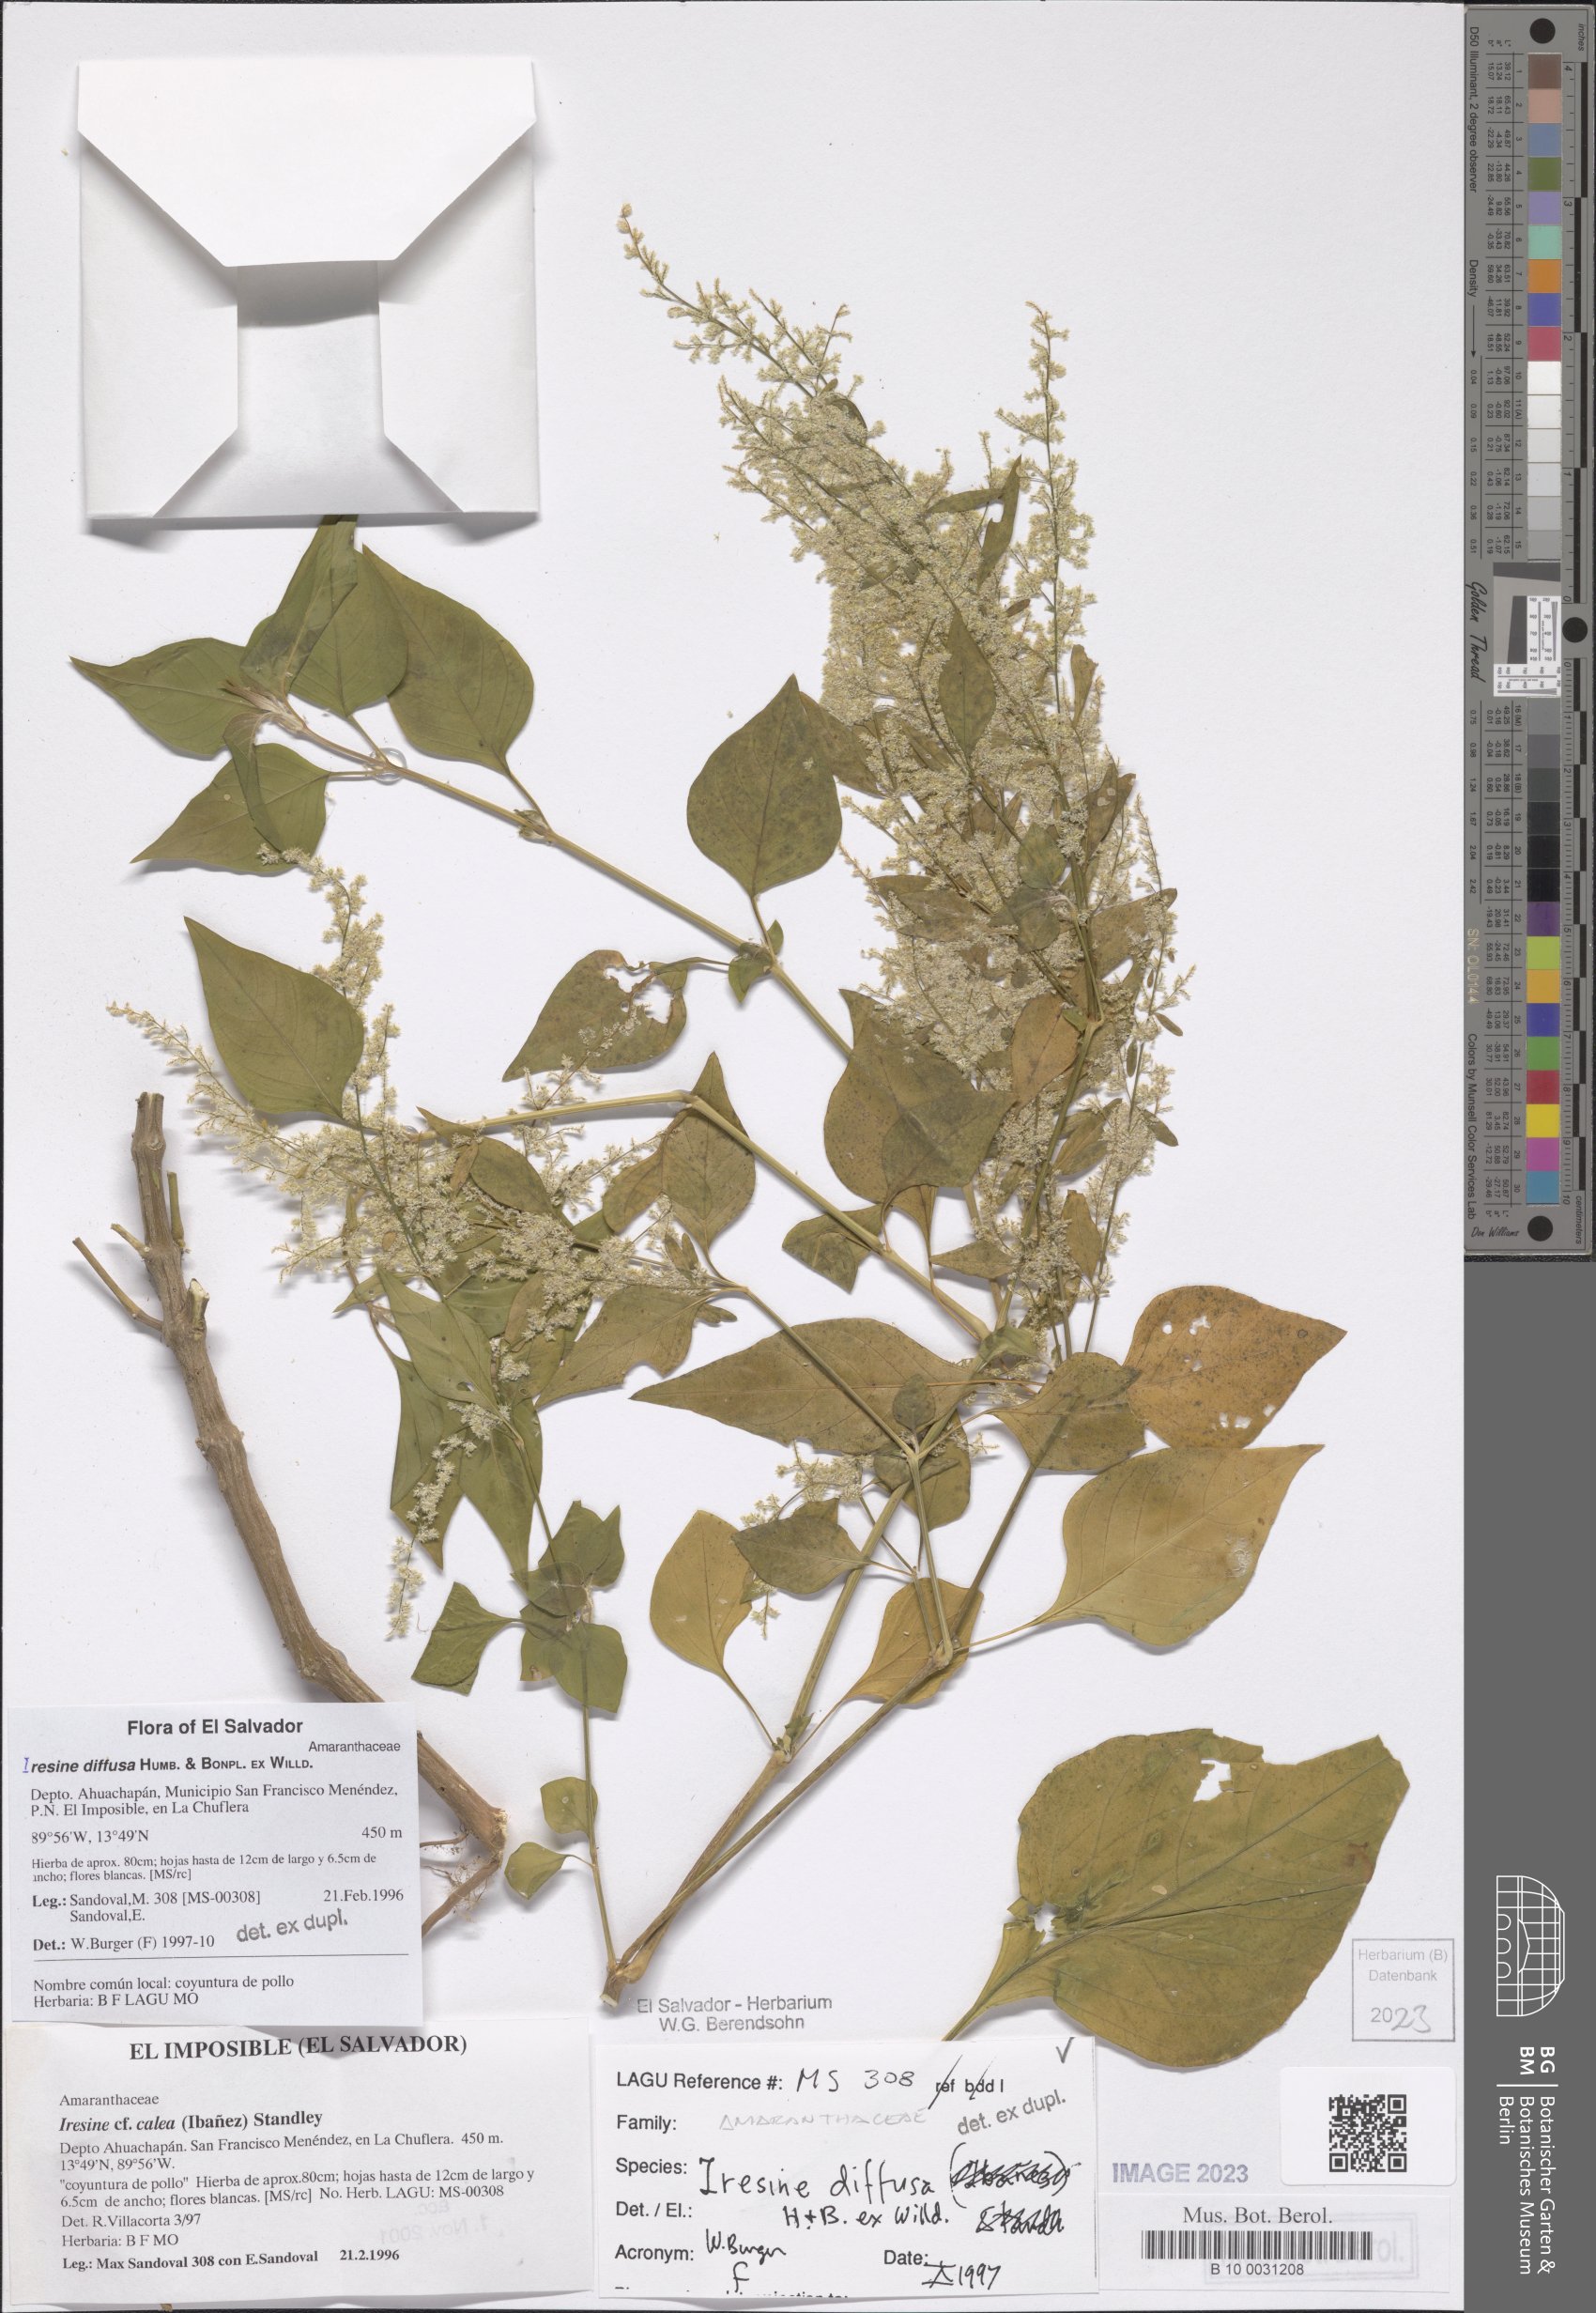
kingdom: Plantae
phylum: Tracheophyta
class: Magnoliopsida
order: Caryophyllales
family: Amaranthaceae
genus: Iresine
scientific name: Iresine diffusa
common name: Juba's-bush
